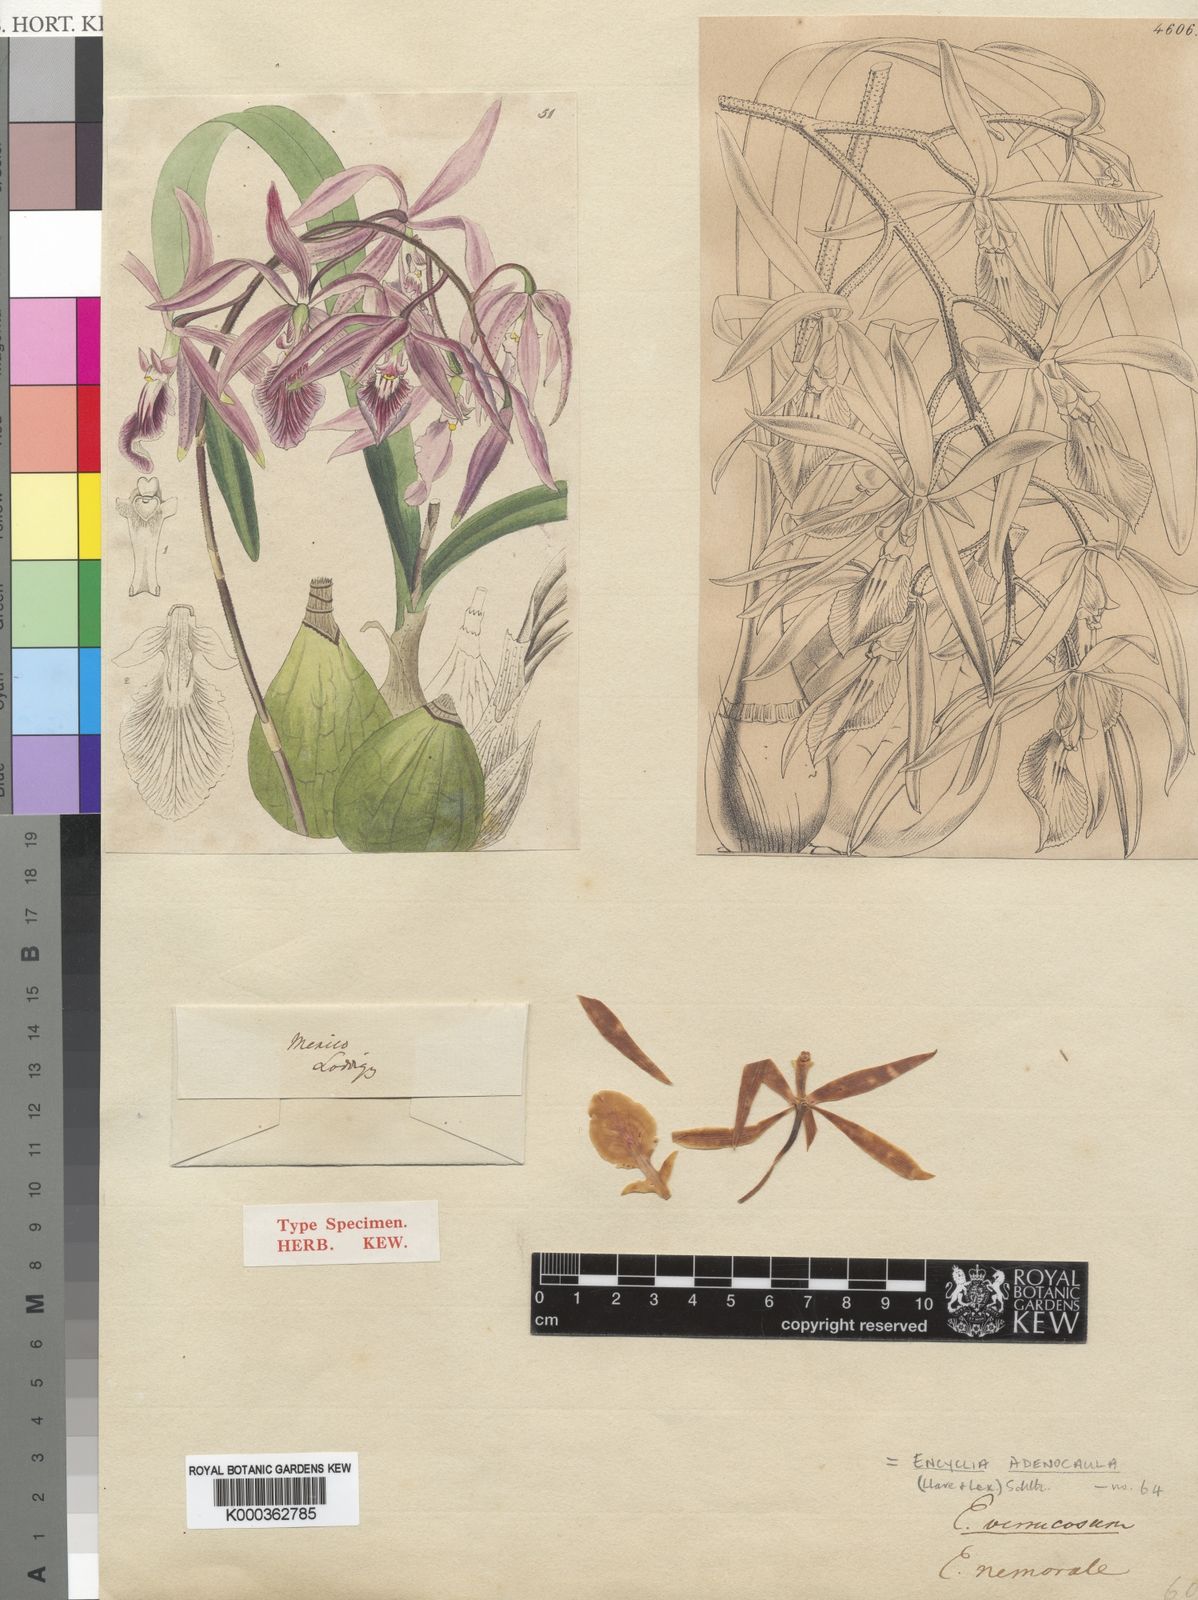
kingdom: Plantae
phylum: Tracheophyta
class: Liliopsida
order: Asparagales
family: Orchidaceae
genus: Encyclia
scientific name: Encyclia adenocaula
